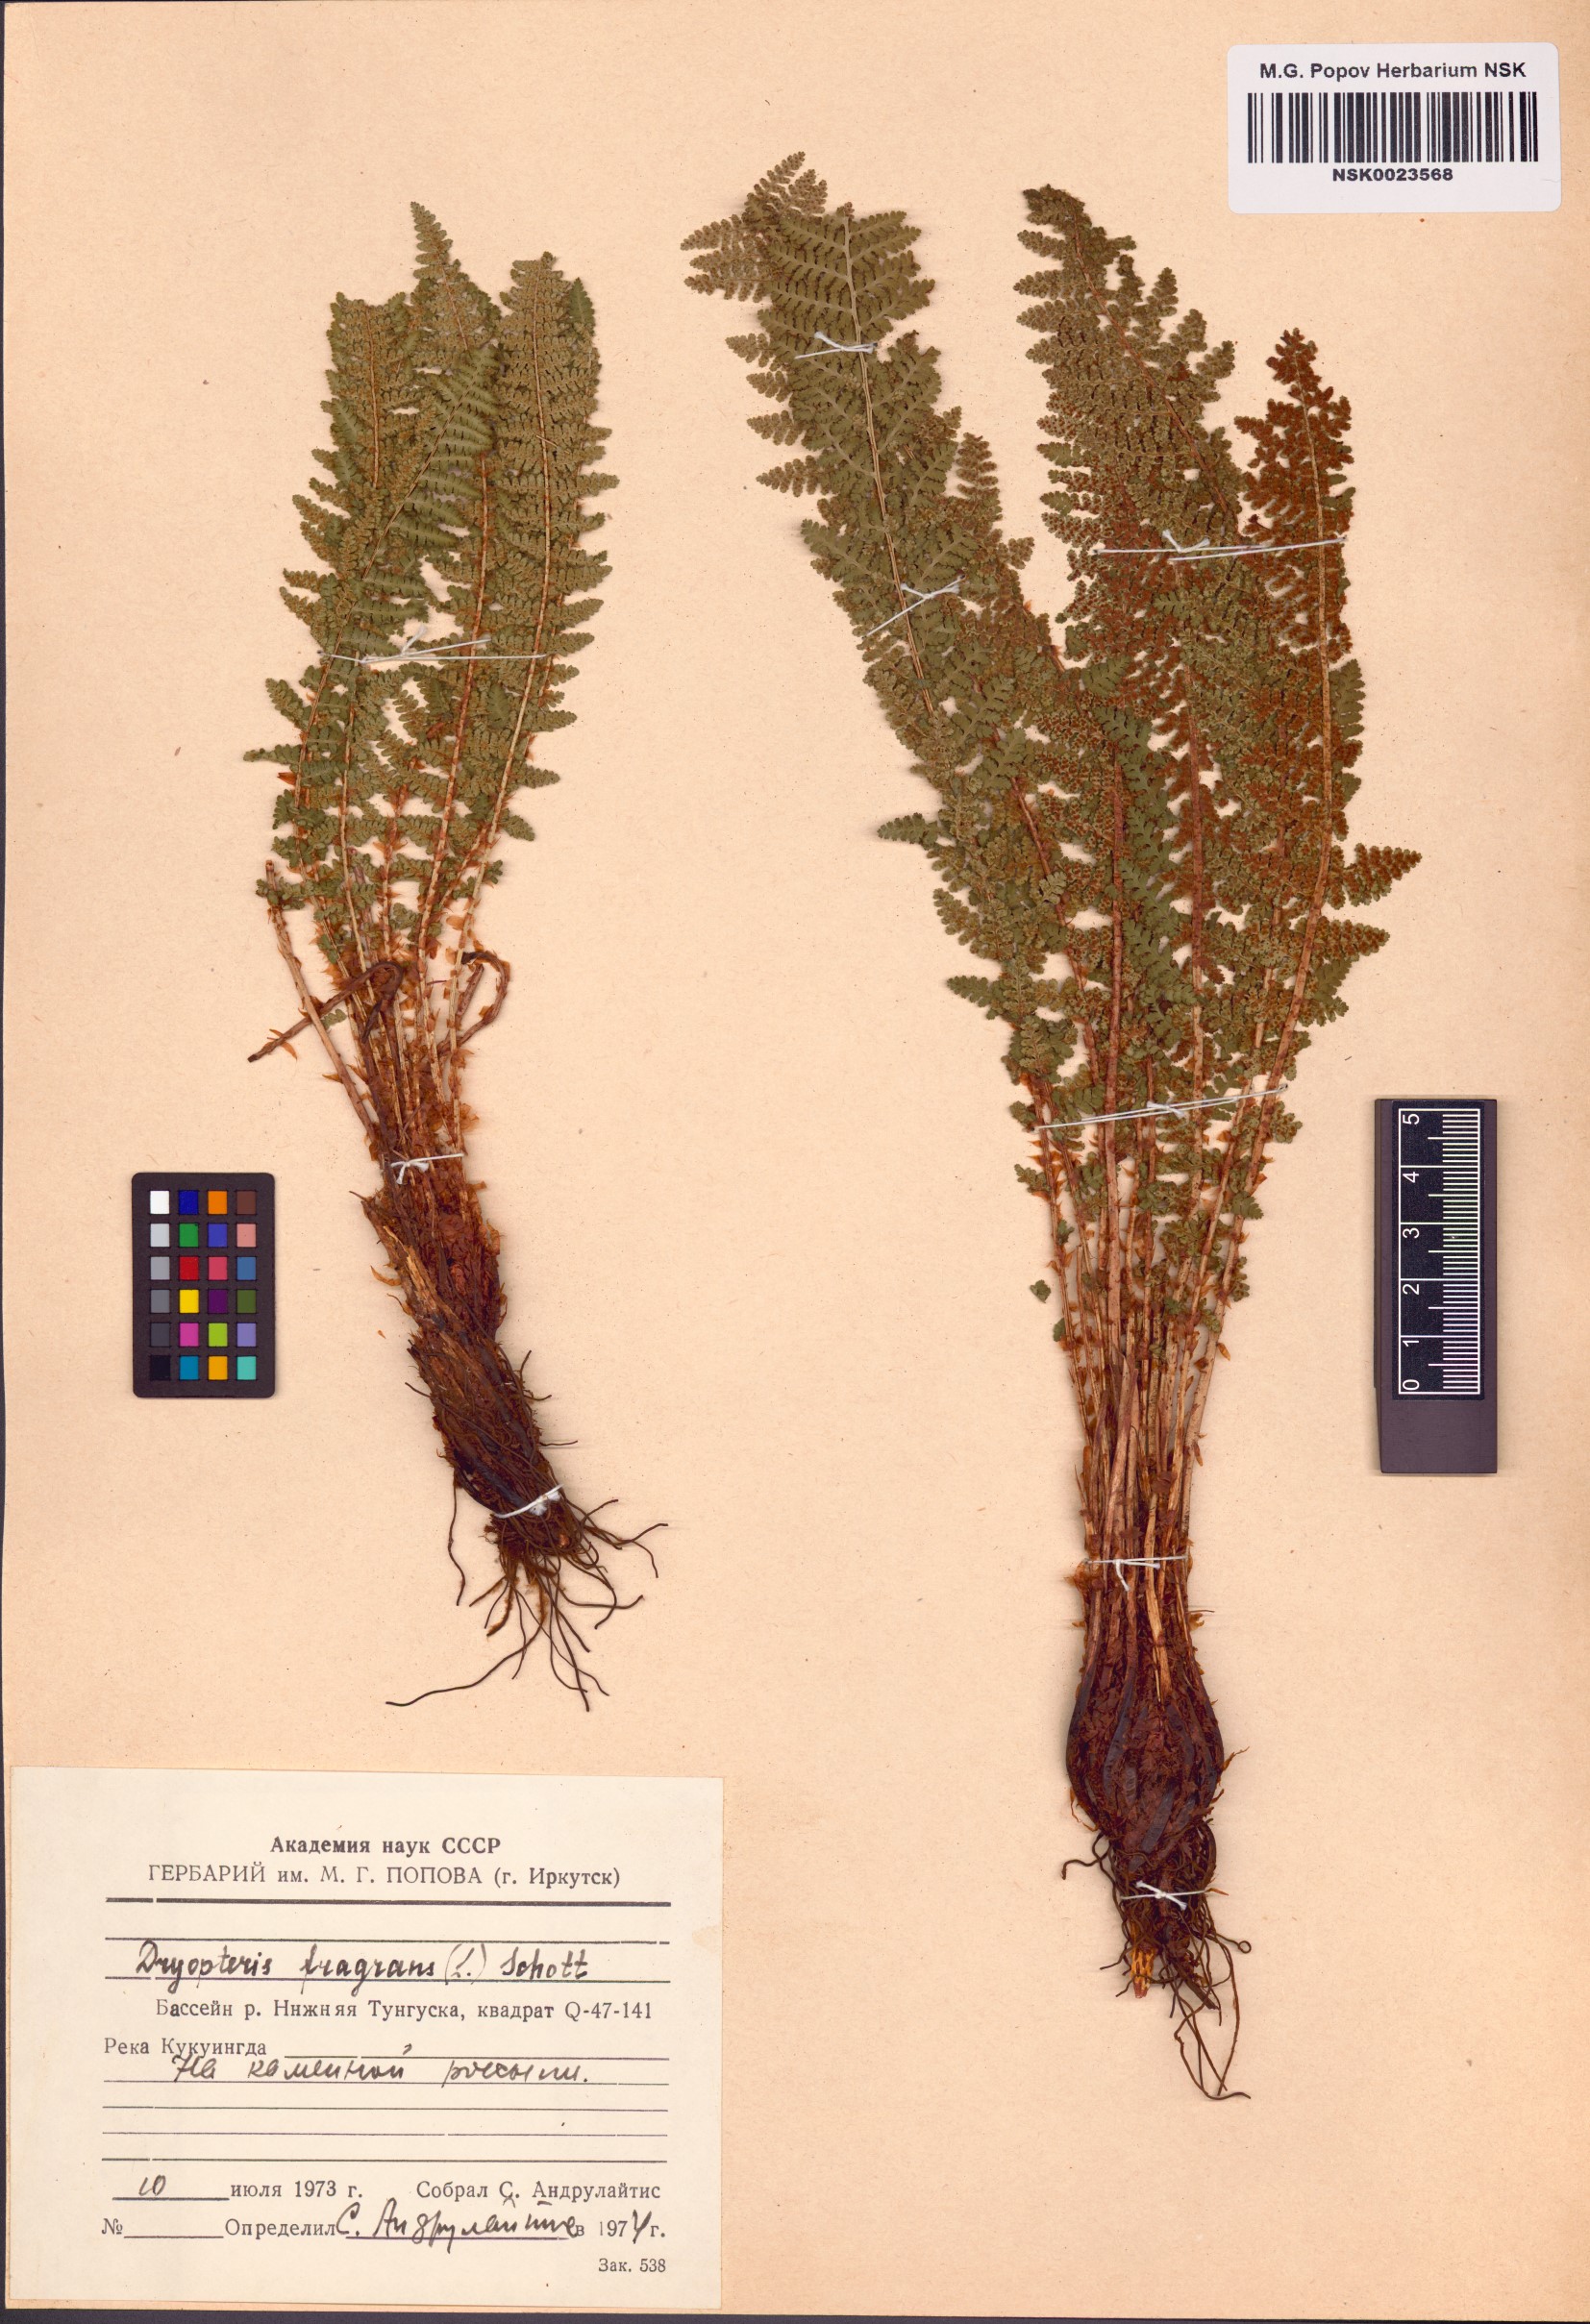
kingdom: Plantae
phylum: Tracheophyta
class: Polypodiopsida
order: Polypodiales
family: Dryopteridaceae
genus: Dryopteris
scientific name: Dryopteris fragrans
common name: Fragrant wood fern
